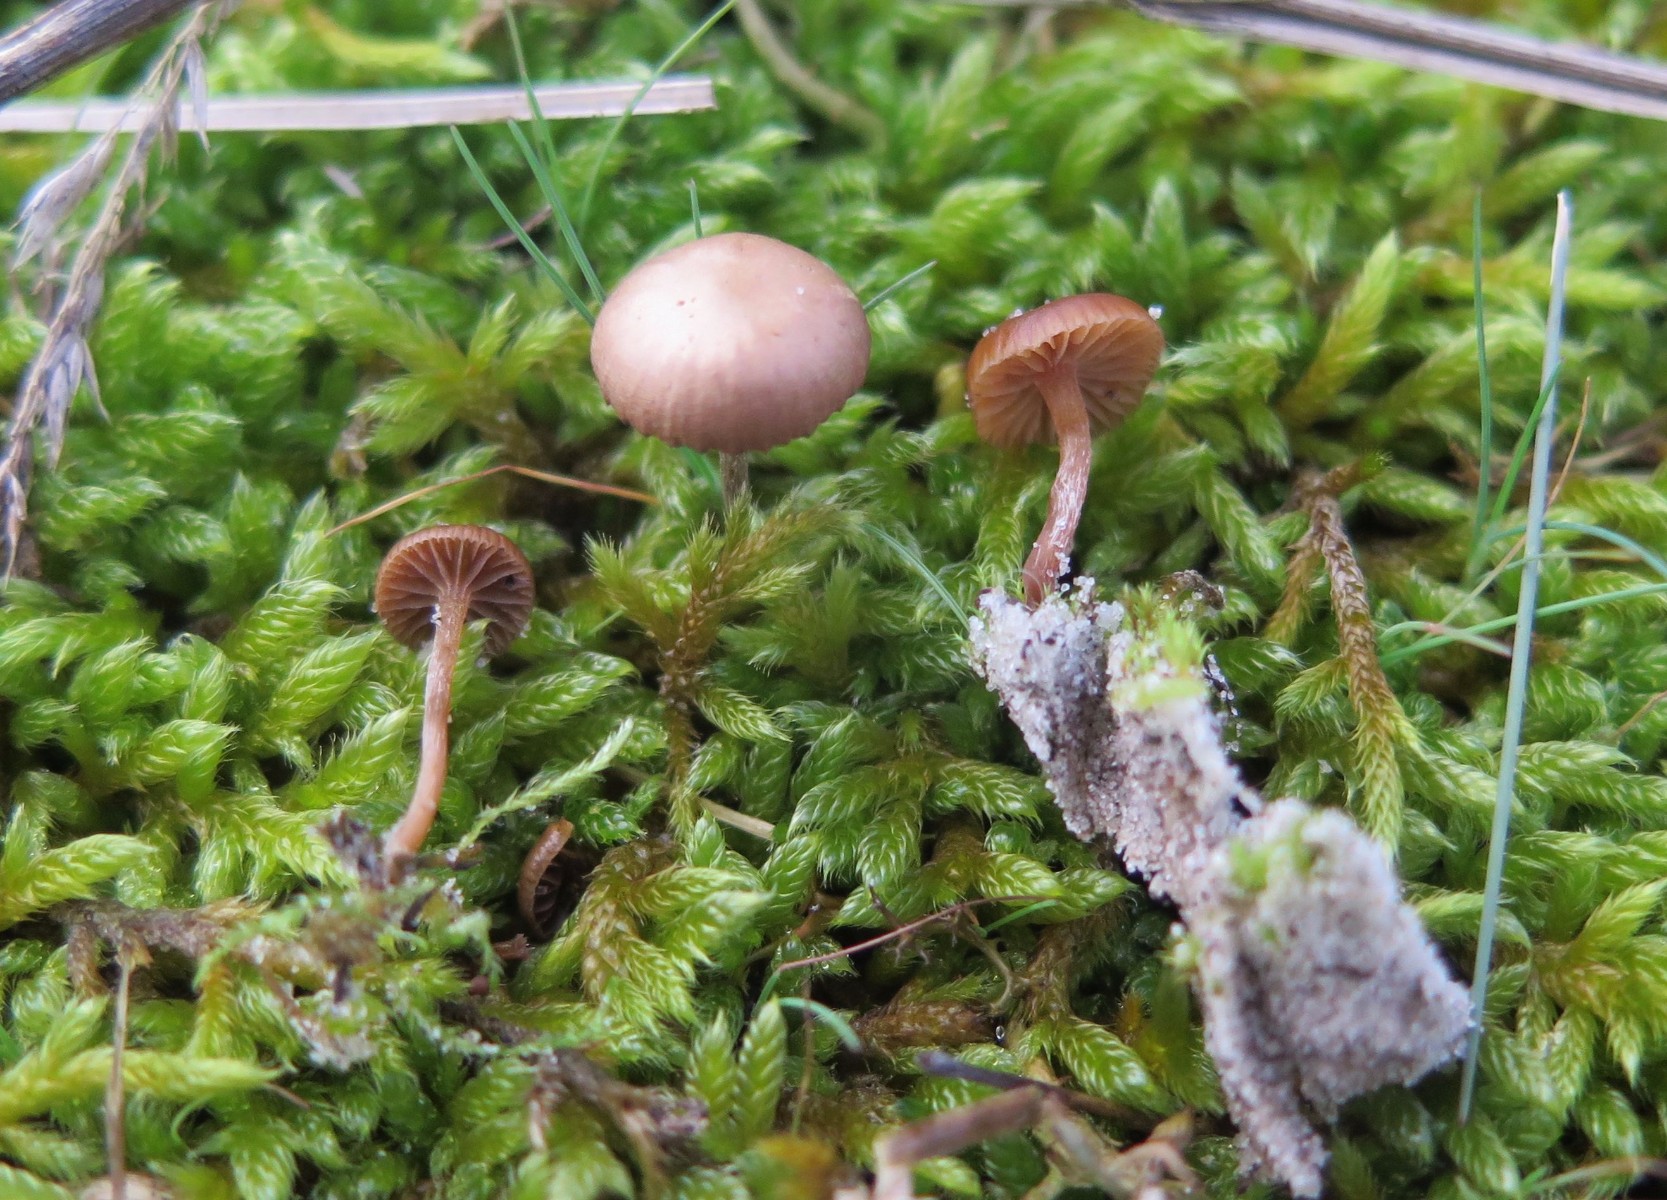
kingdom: Fungi
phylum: Basidiomycota
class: Agaricomycetes
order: Agaricales
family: Strophariaceae
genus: Deconica
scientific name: Deconica montana
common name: rødbrun stråhat
